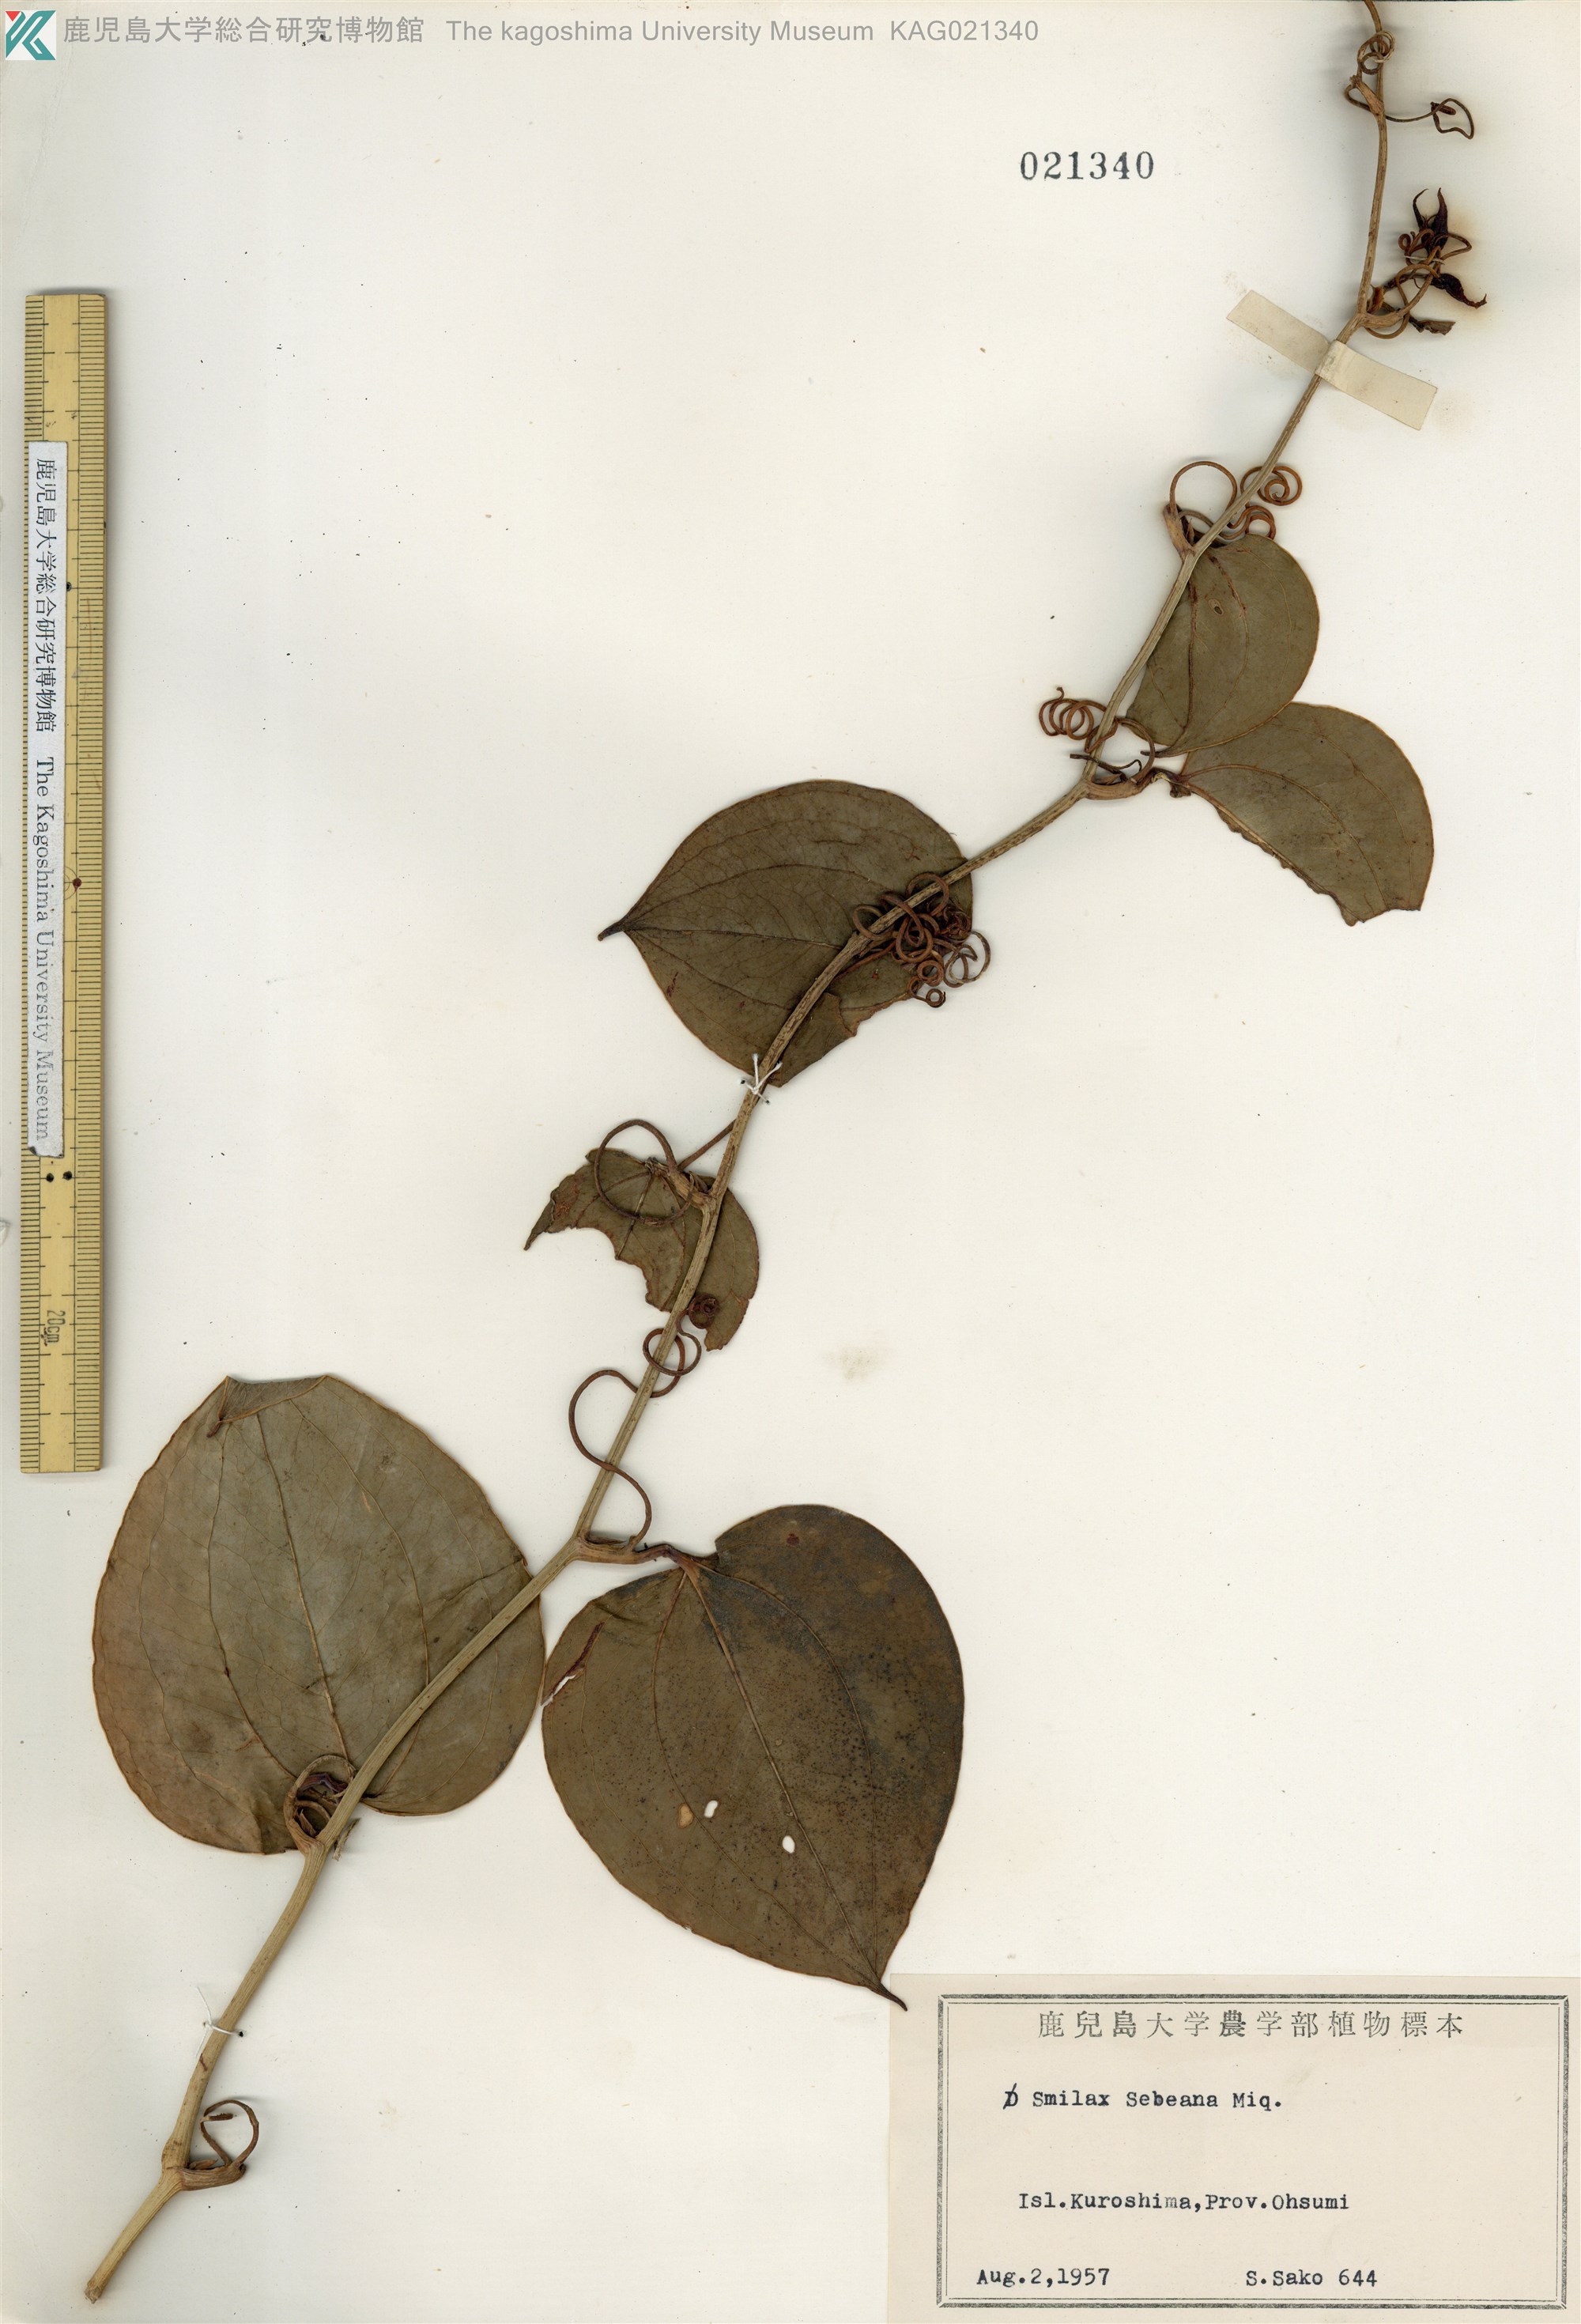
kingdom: Plantae
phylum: Tracheophyta
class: Liliopsida
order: Liliales
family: Smilacaceae
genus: Smilax
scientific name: Smilax sebeana
